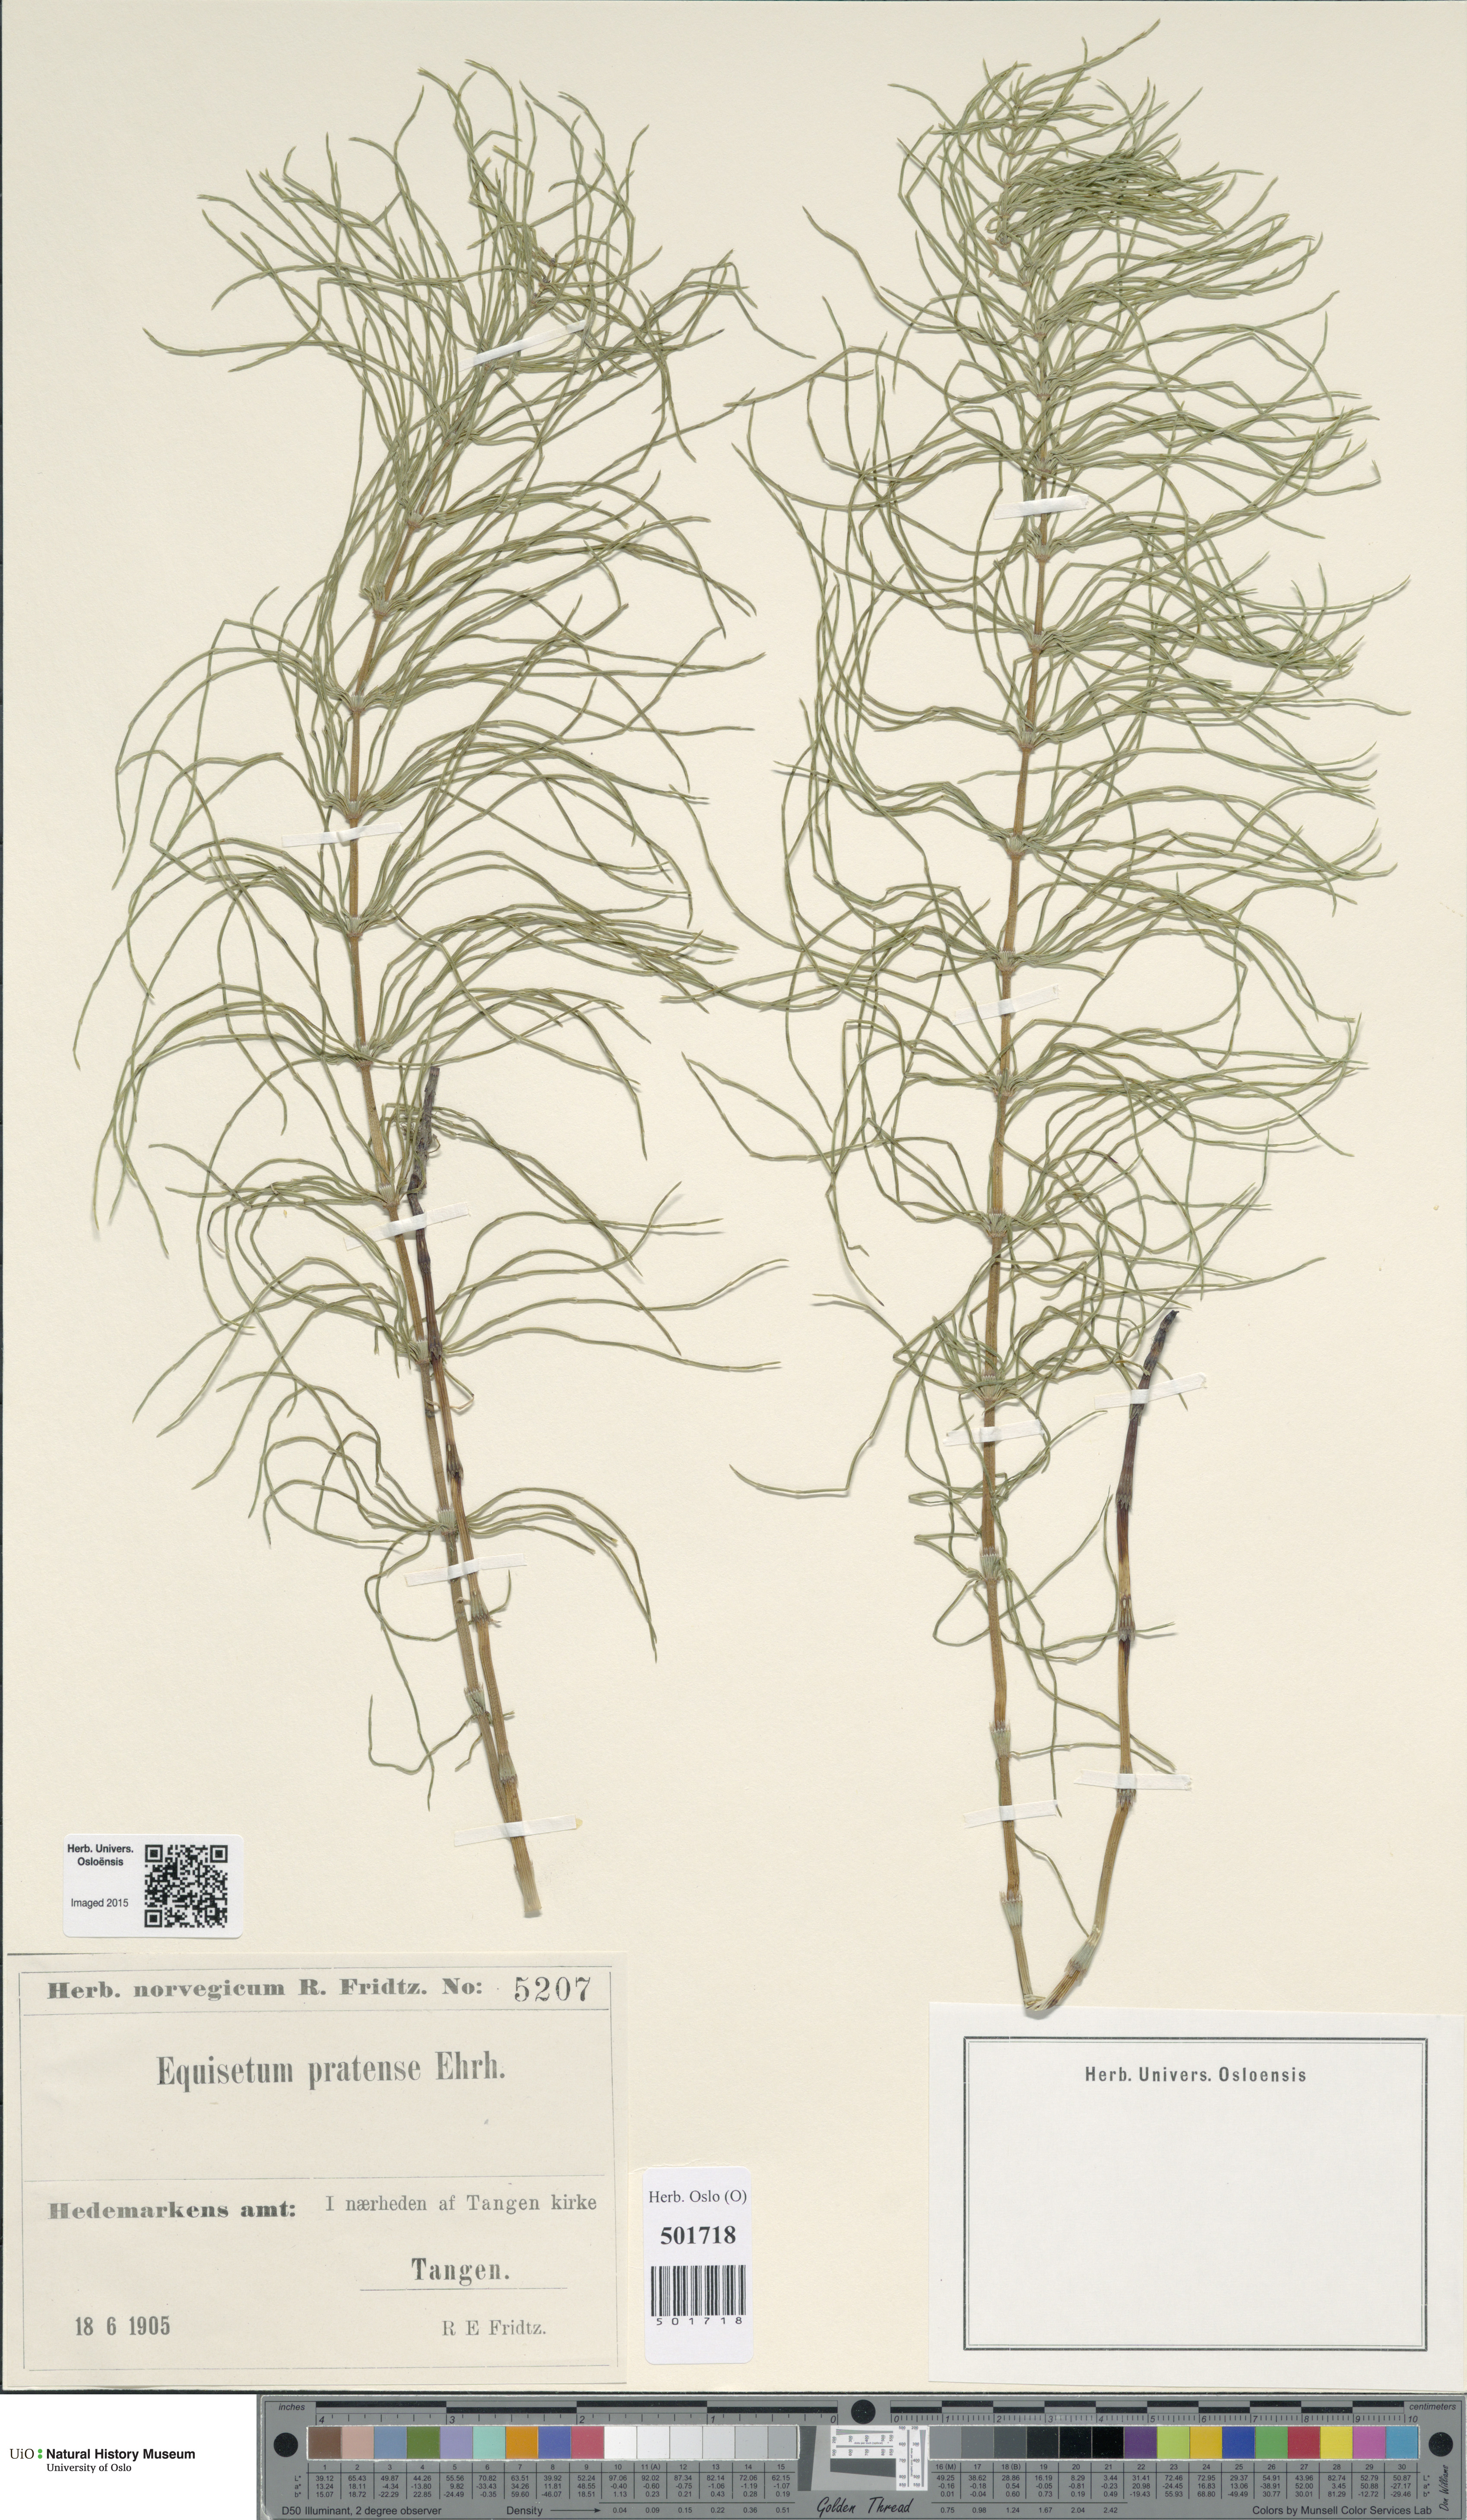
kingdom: Plantae
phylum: Tracheophyta
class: Polypodiopsida
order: Equisetales
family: Equisetaceae
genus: Equisetum
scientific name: Equisetum pratense
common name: Meadow horsetail
